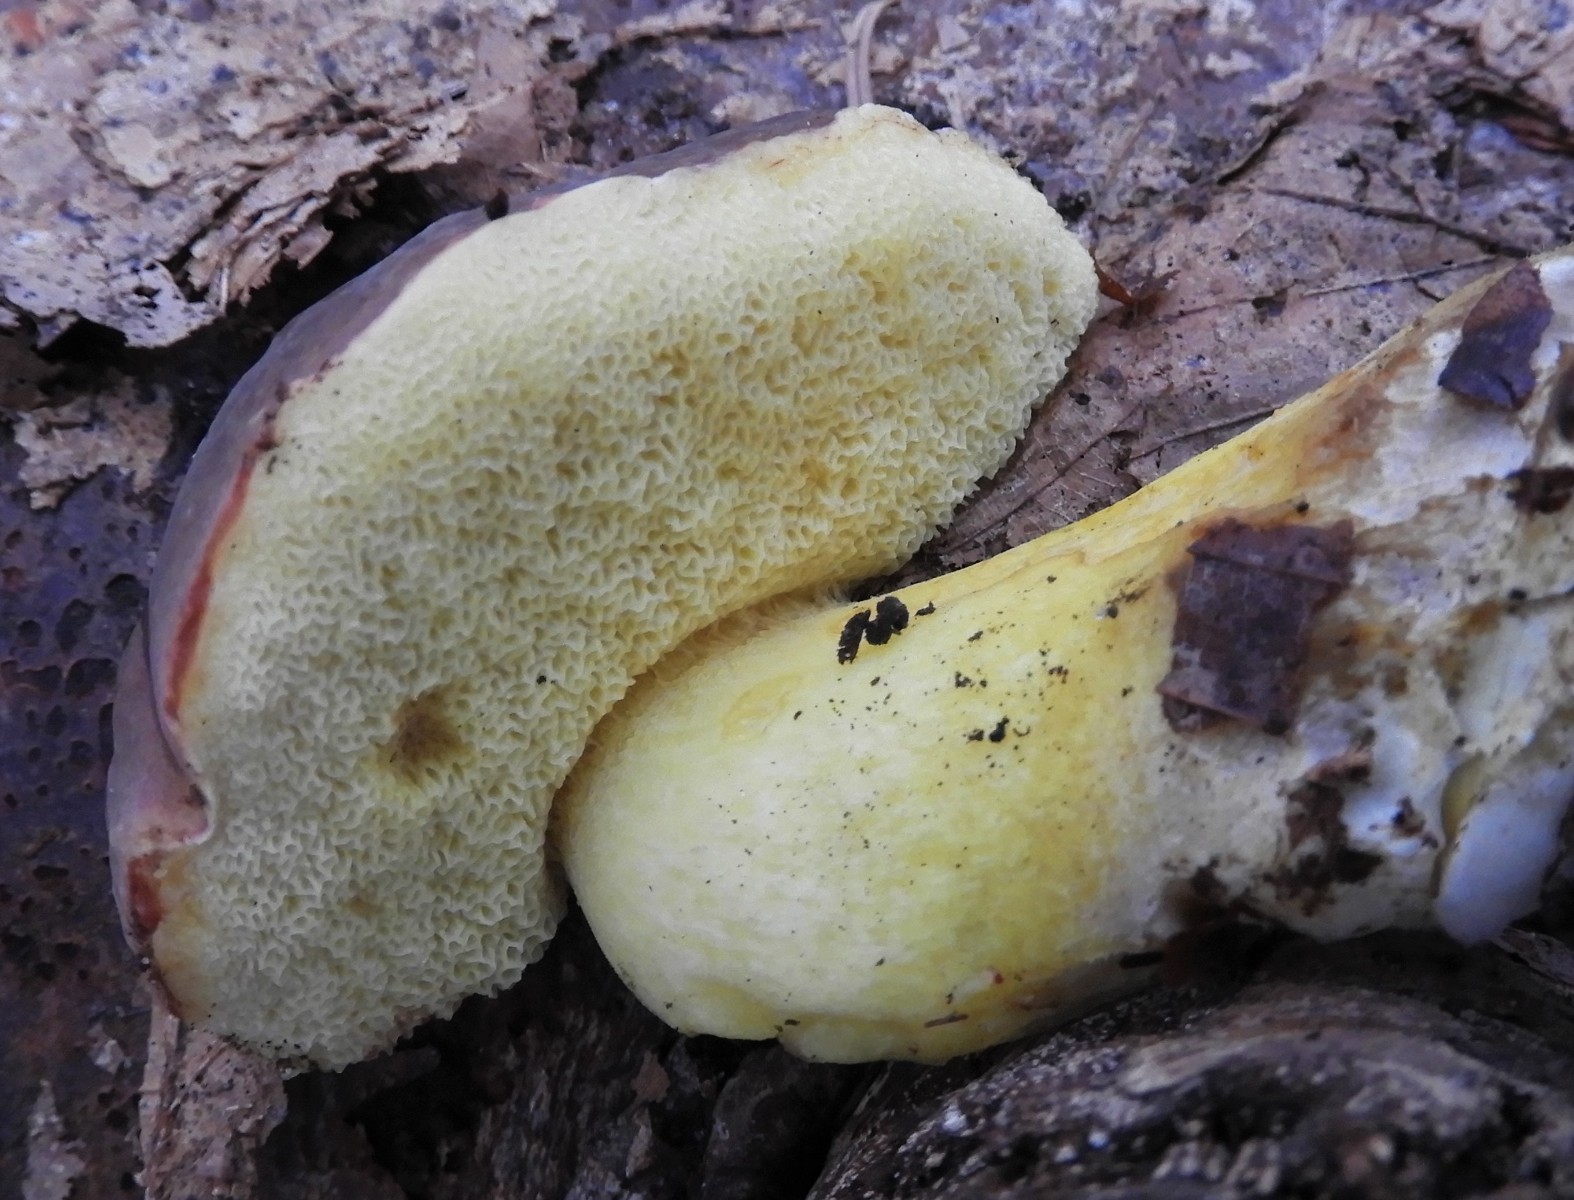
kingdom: Fungi
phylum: Basidiomycota
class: Agaricomycetes
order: Boletales
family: Boletaceae
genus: Xerocomellus
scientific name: Xerocomellus pruinatus
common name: dugget rørhat
